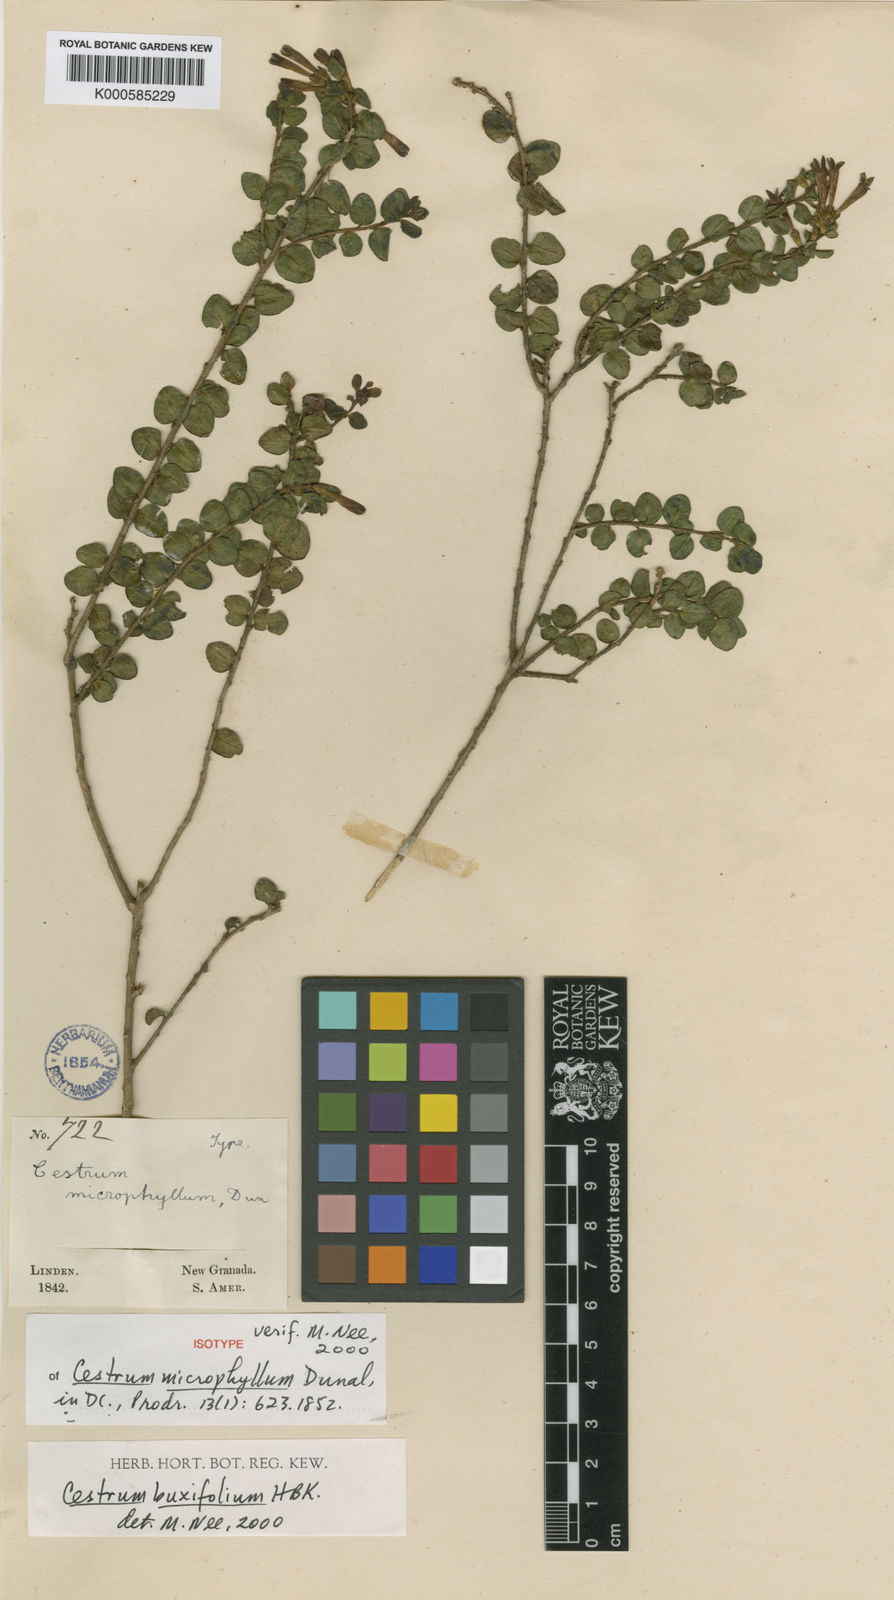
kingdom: Plantae
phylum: Tracheophyta
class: Magnoliopsida
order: Solanales
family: Solanaceae
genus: Cestrum
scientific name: Cestrum buxifolium
